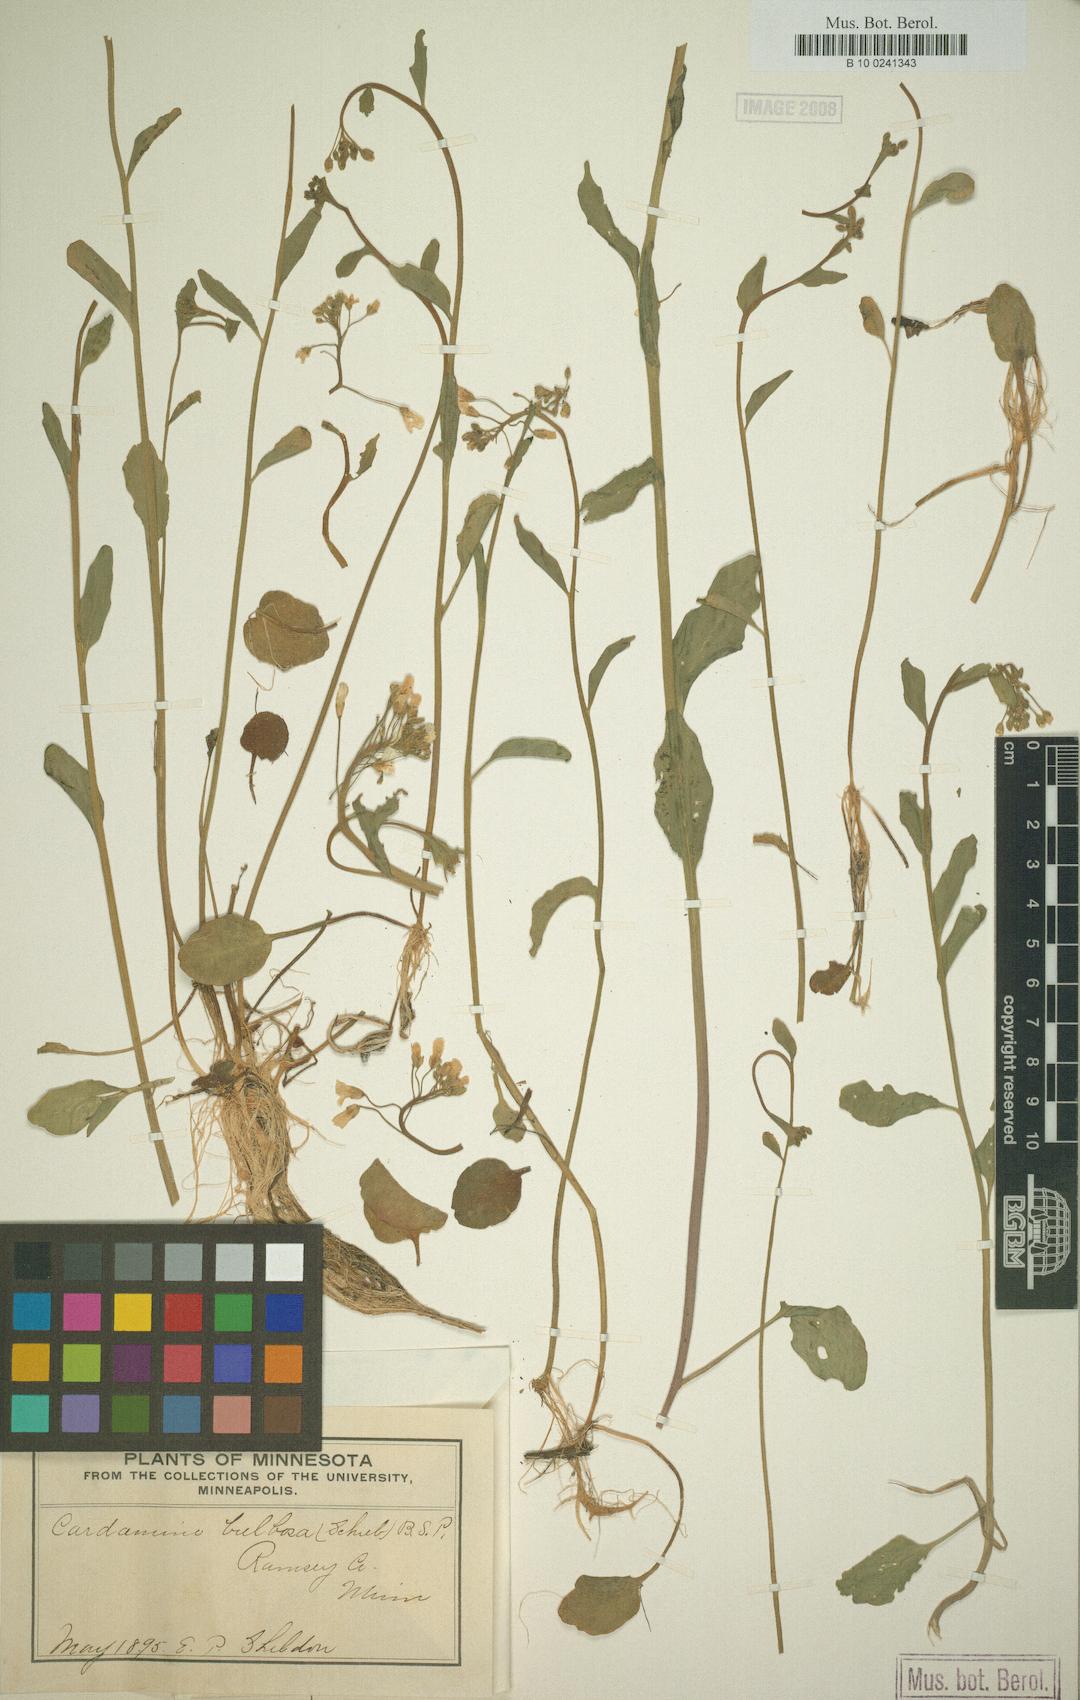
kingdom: Plantae
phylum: Tracheophyta
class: Magnoliopsida
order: Brassicales
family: Brassicaceae
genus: Cardamine
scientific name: Cardamine bulbosa
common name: Spring cress
